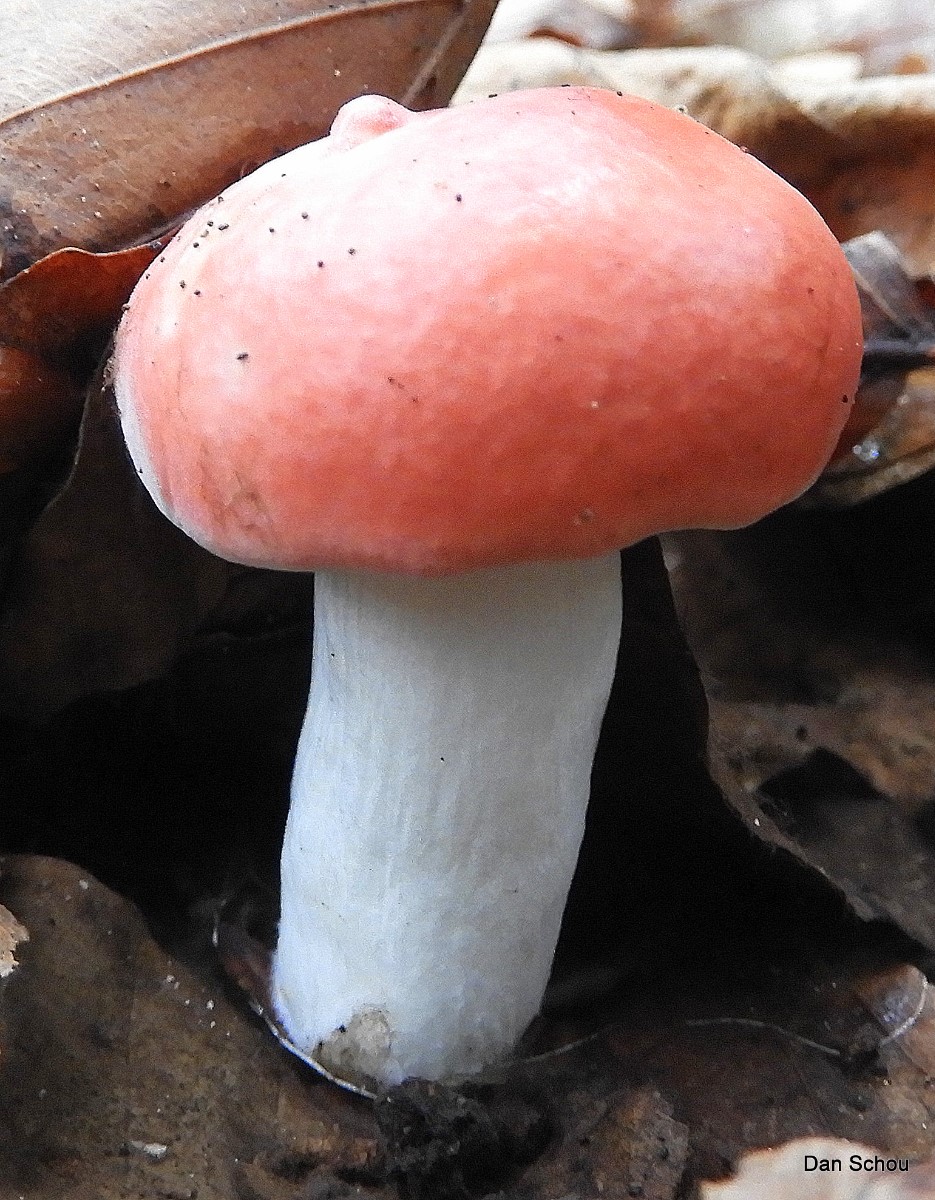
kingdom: Fungi
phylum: Basidiomycota
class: Agaricomycetes
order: Russulales
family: Russulaceae
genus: Russula
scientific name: Russula
